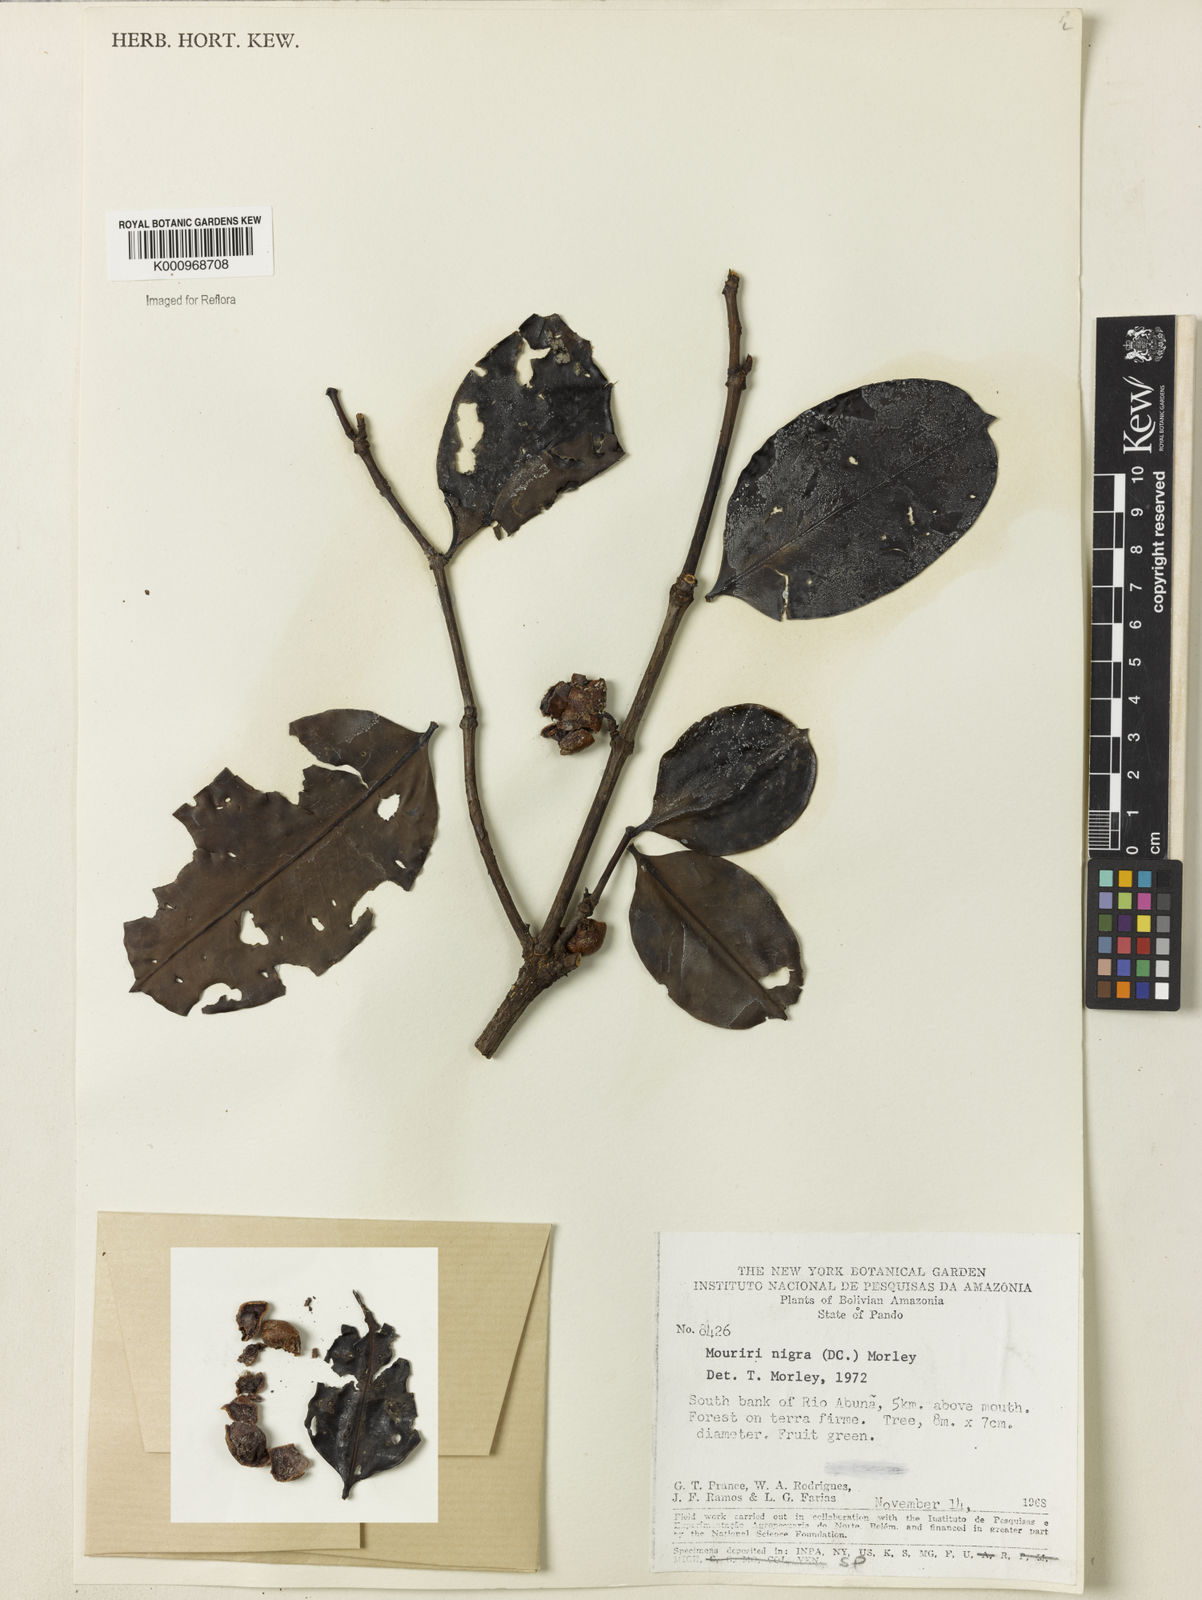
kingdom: Plantae
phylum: Tracheophyta
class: Magnoliopsida
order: Myrtales
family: Melastomataceae
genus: Mouriri
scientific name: Mouriri nigra
